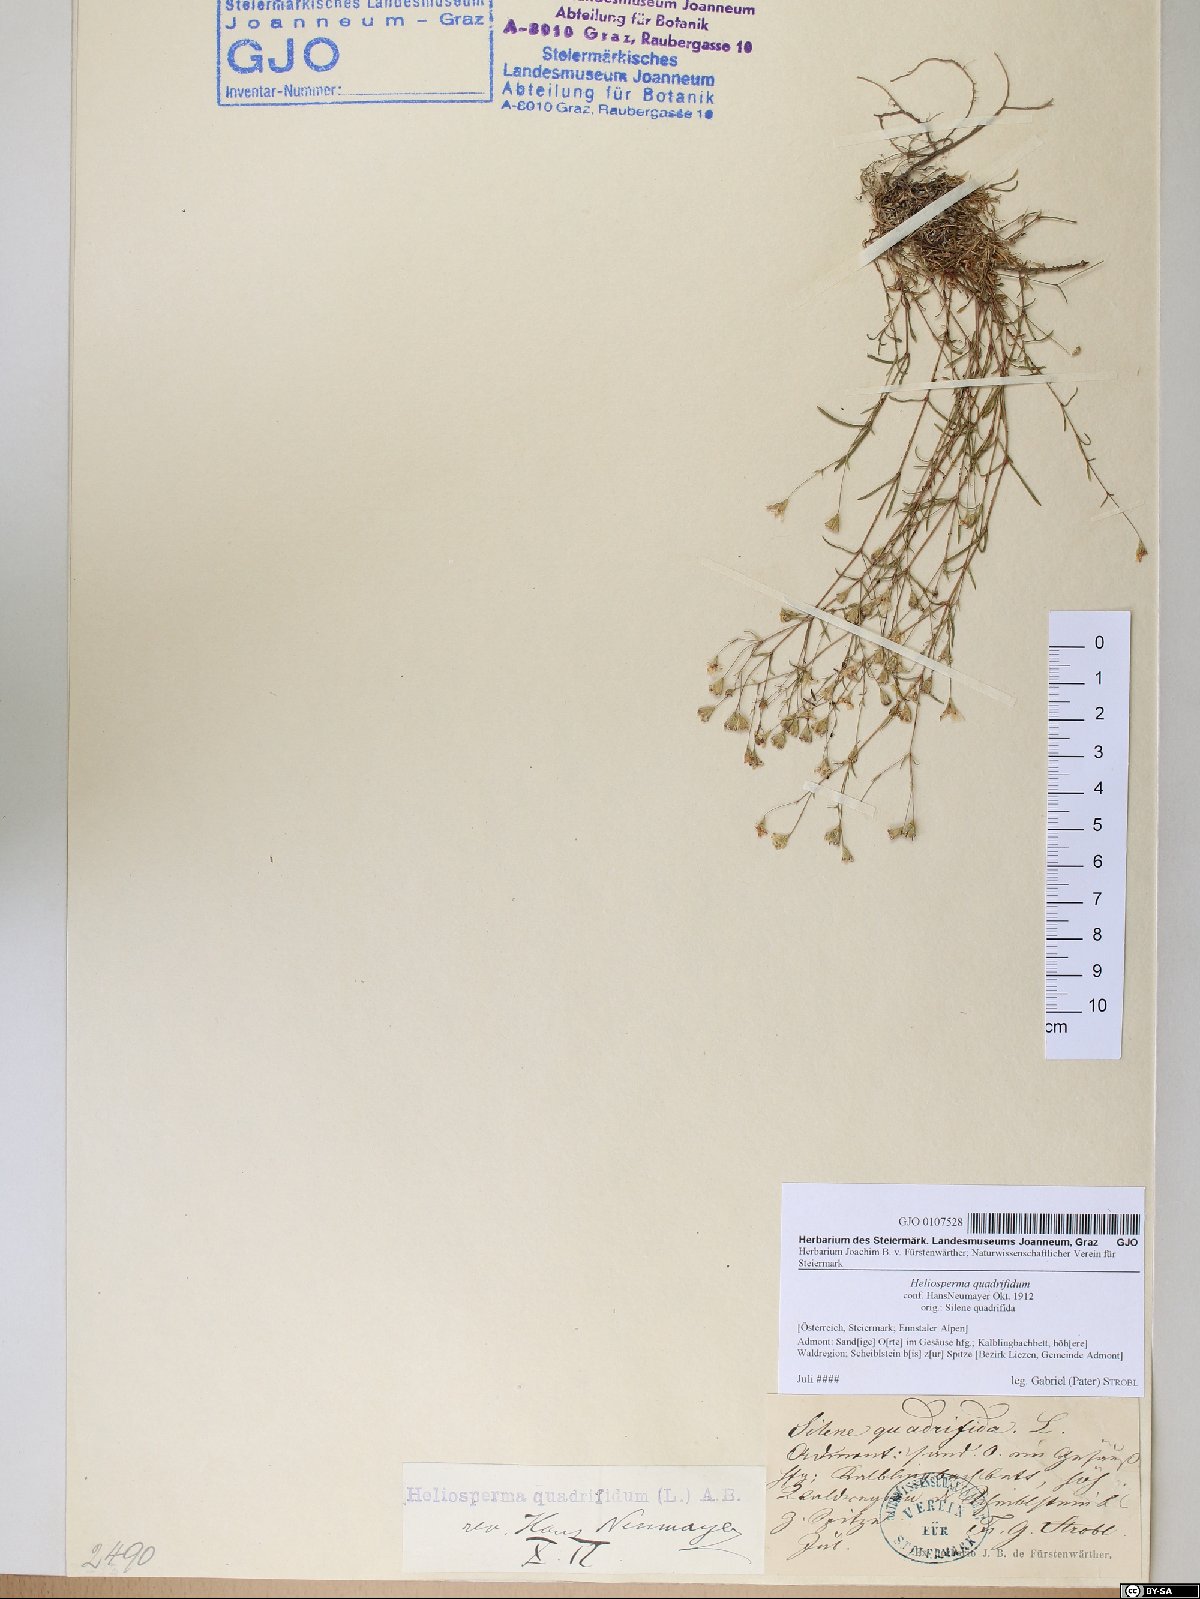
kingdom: Plantae
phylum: Tracheophyta
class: Magnoliopsida
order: Caryophyllales
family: Caryophyllaceae
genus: Heliosperma
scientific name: Heliosperma alpestre
